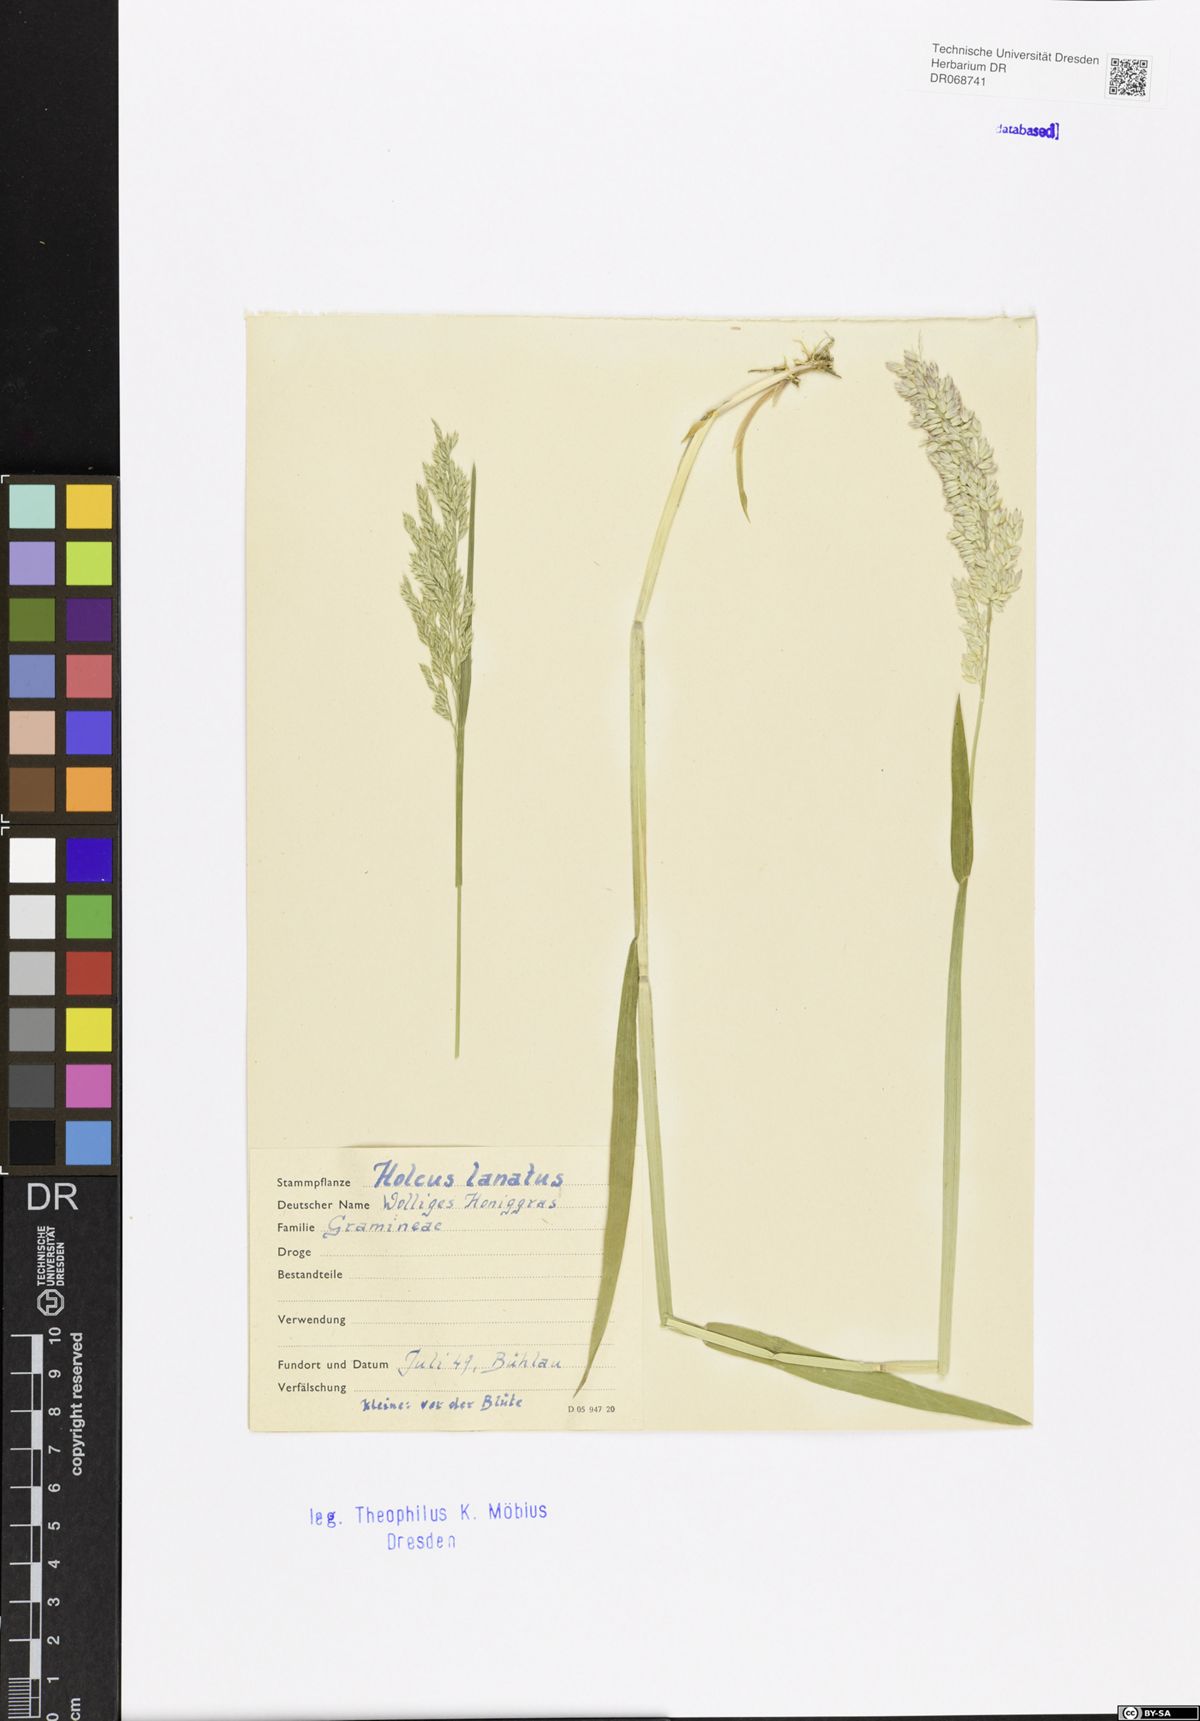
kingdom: Plantae
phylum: Tracheophyta
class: Liliopsida
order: Poales
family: Poaceae
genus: Holcus
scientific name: Holcus lanatus
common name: Yorkshire-fog
